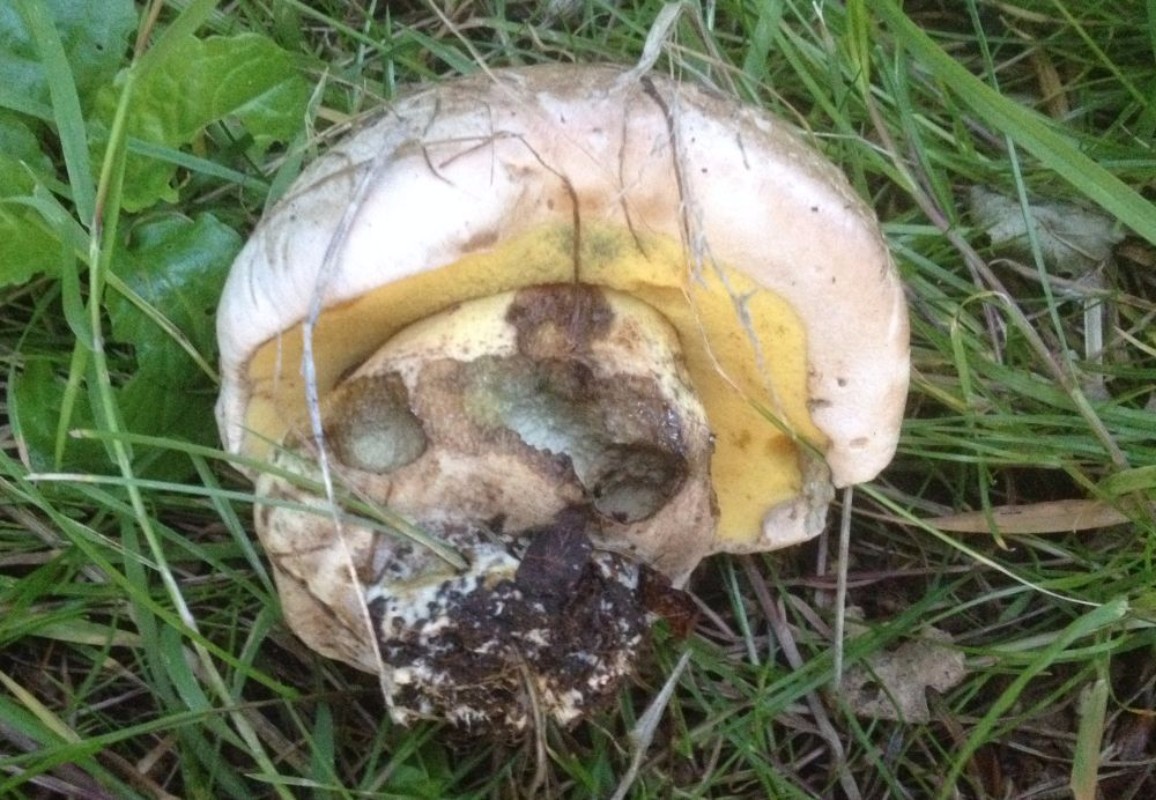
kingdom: Fungi
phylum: Basidiomycota
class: Agaricomycetes
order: Boletales
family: Boletaceae
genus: Caloboletus
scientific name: Caloboletus radicans
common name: rod-rørhat
